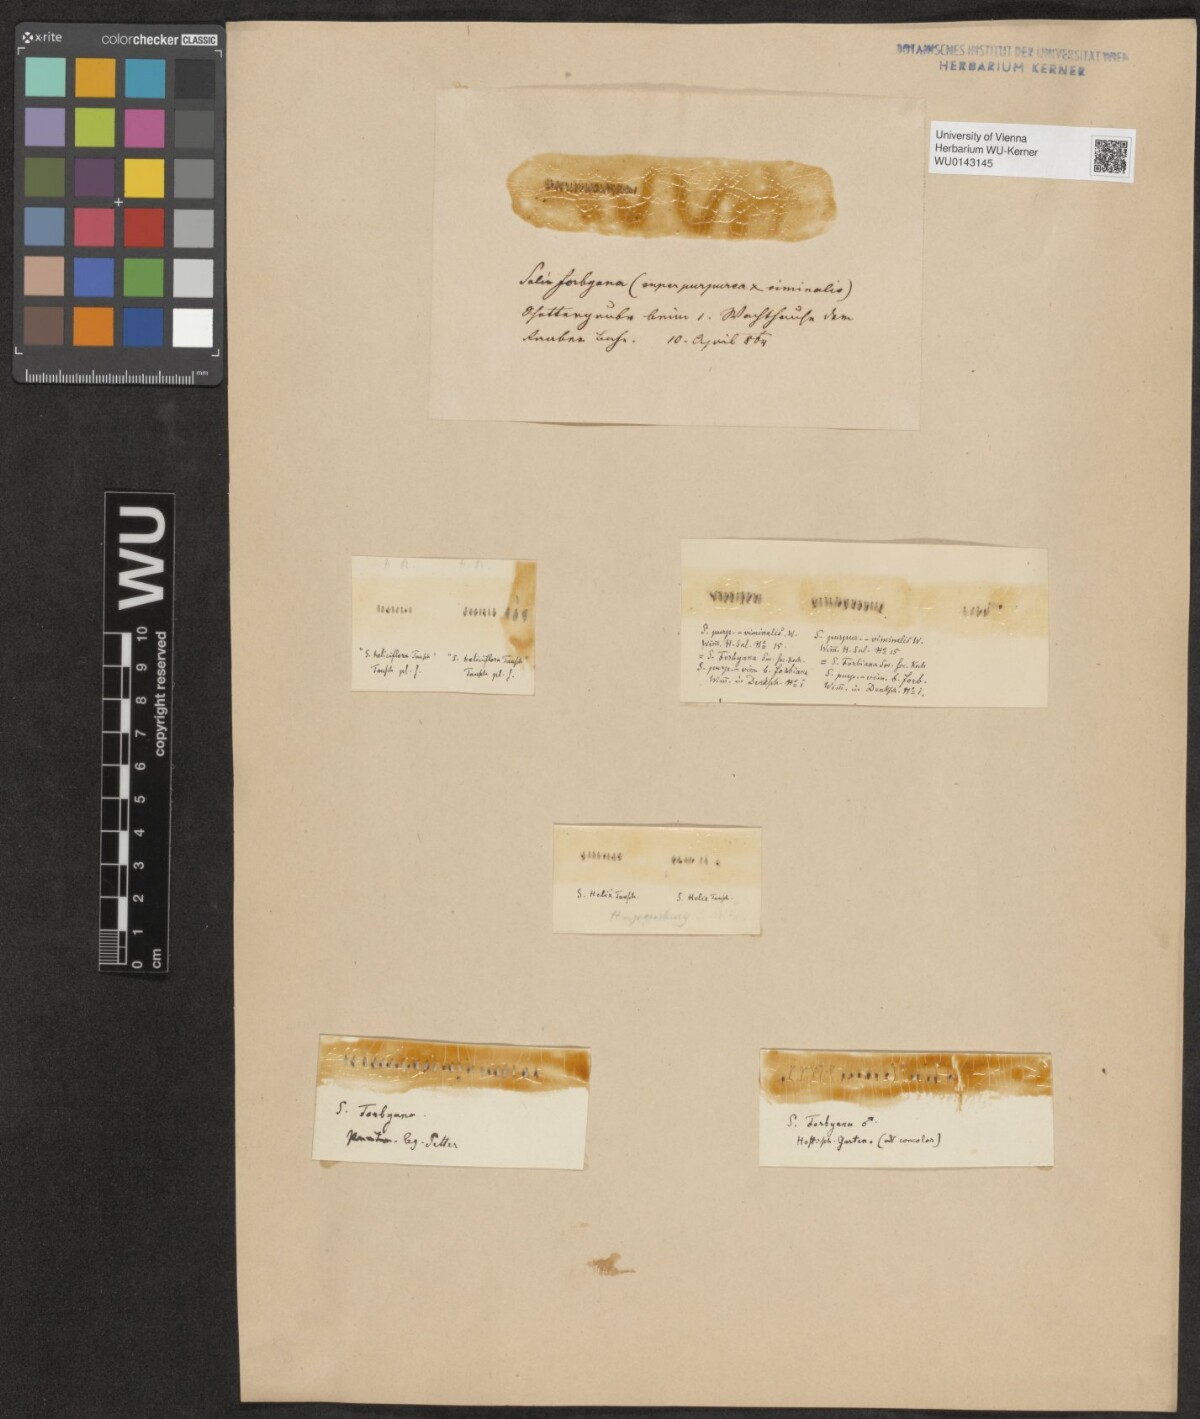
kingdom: Plantae
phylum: Tracheophyta
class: Magnoliopsida
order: Malpighiales
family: Salicaceae
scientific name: Salicaceae
